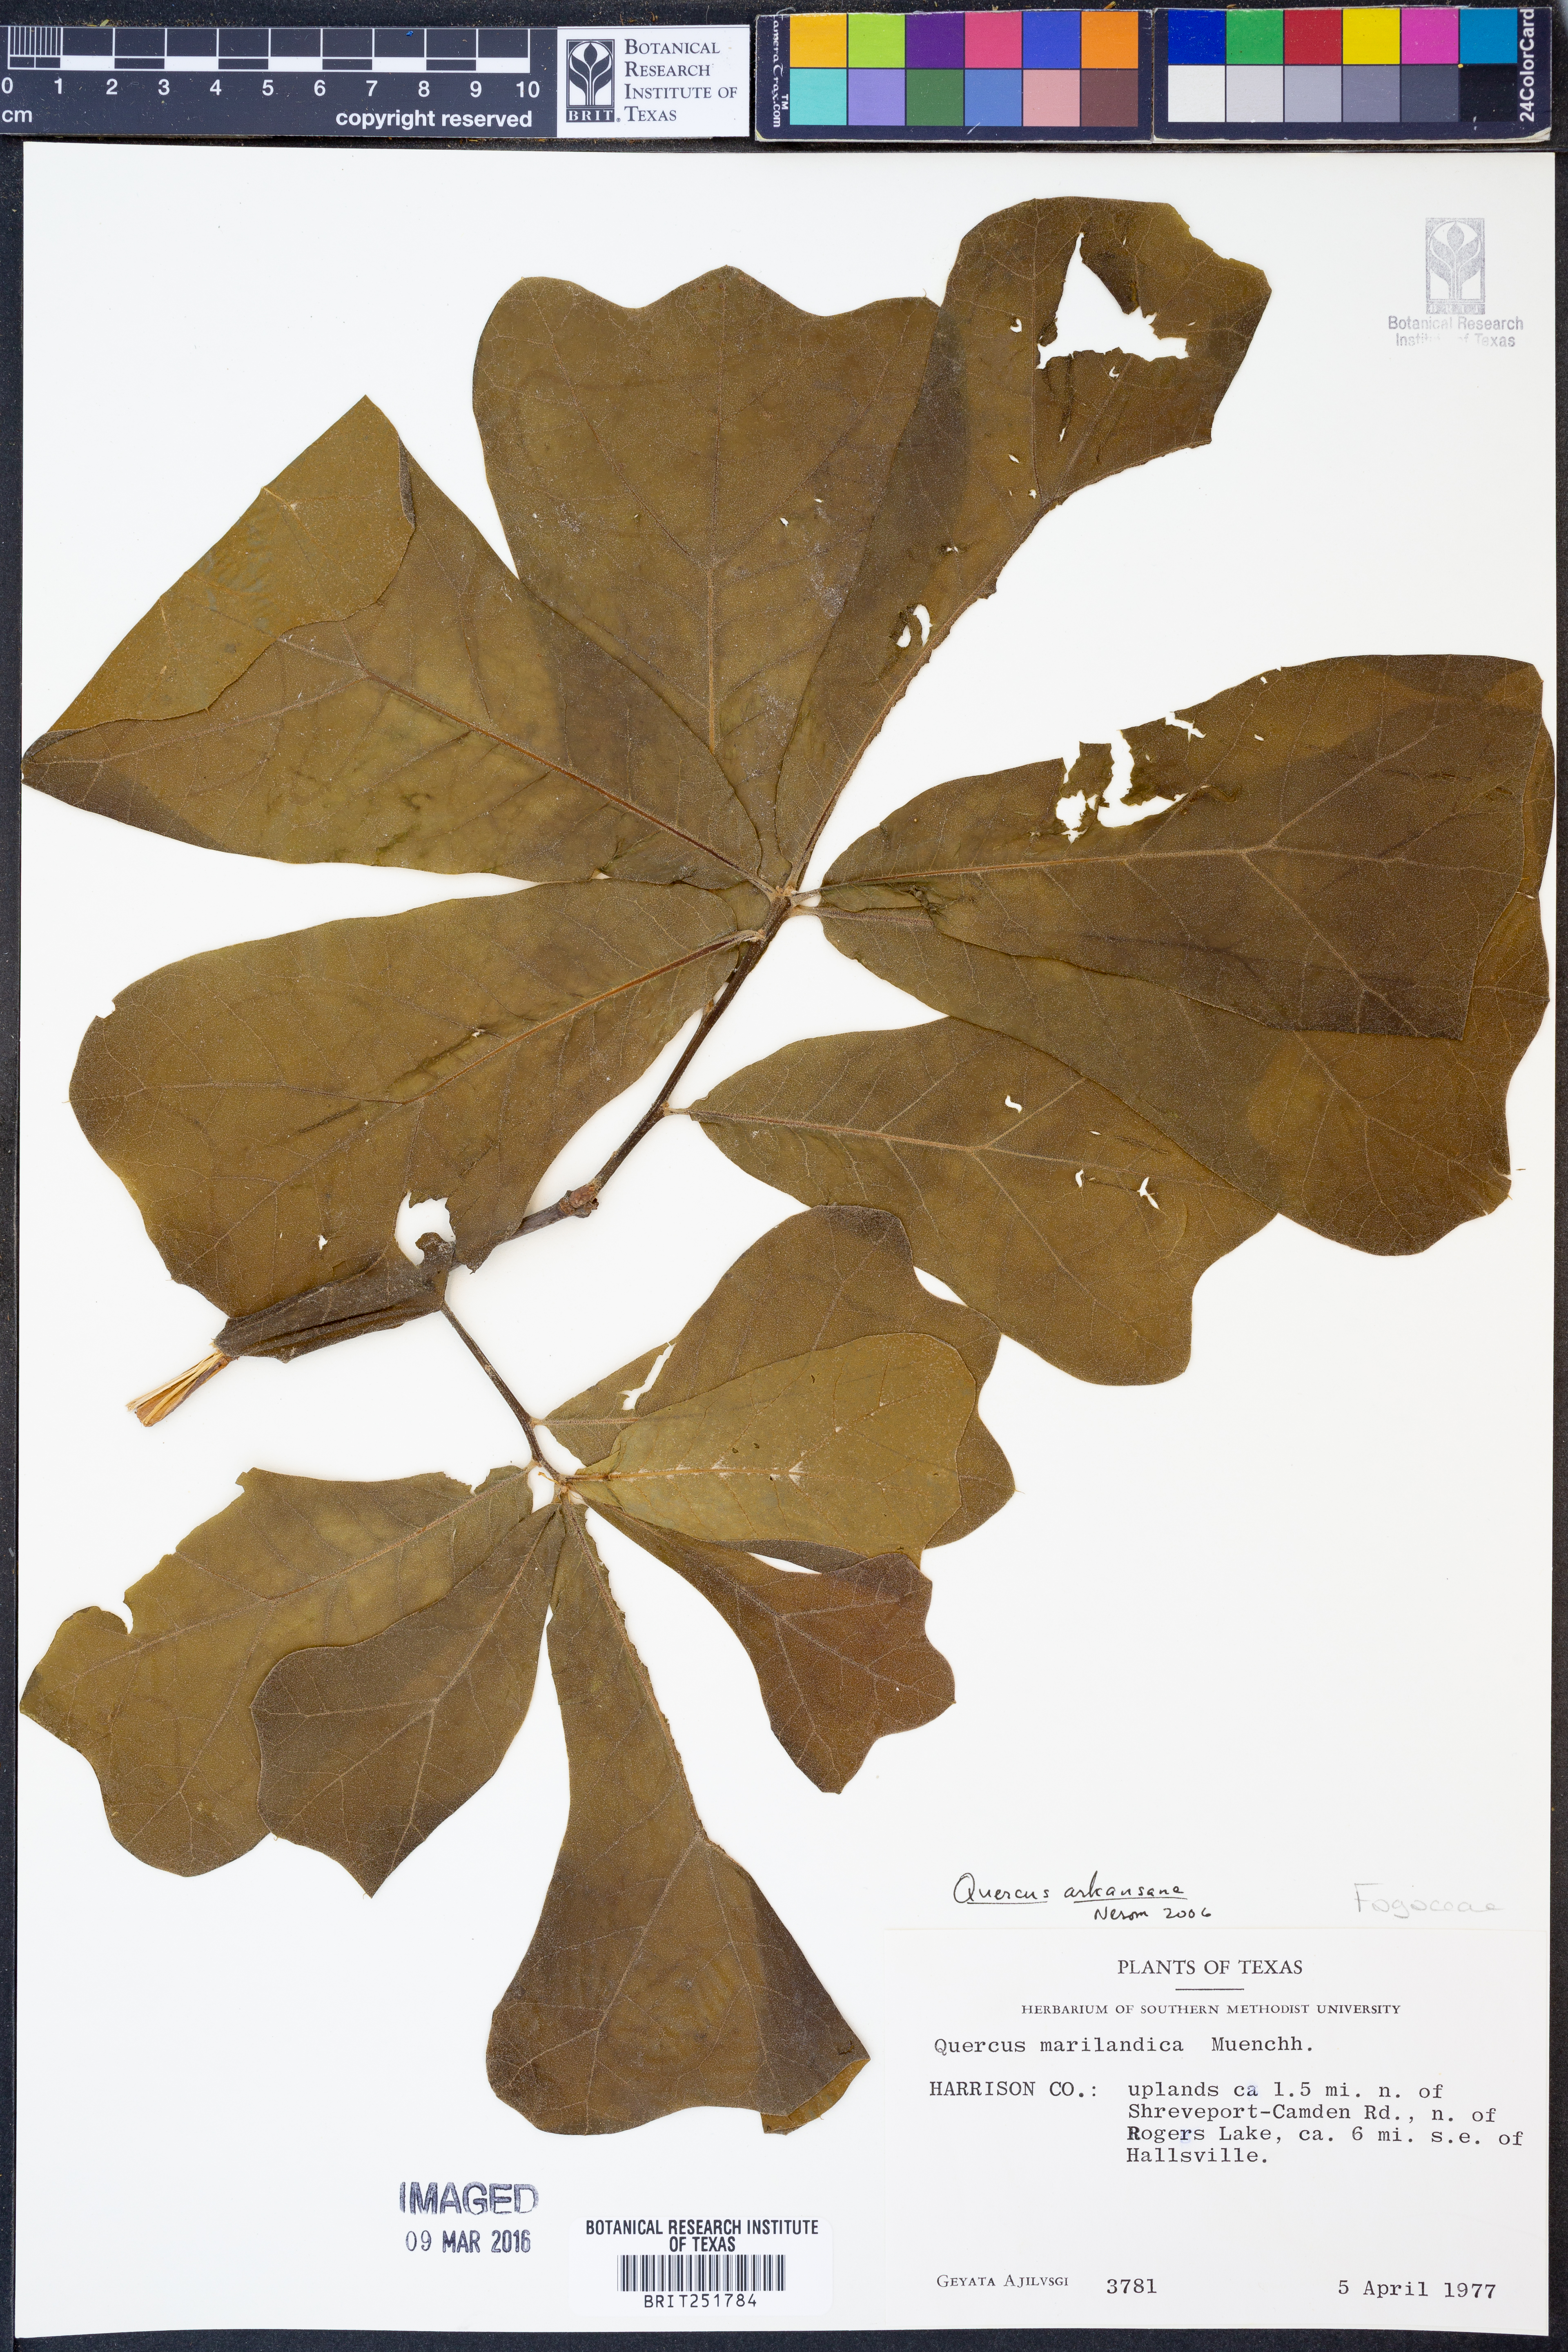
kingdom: Plantae
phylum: Tracheophyta
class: Magnoliopsida
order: Fagales
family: Fagaceae
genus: Quercus
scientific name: Quercus arkansana
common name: Arkansas oak
